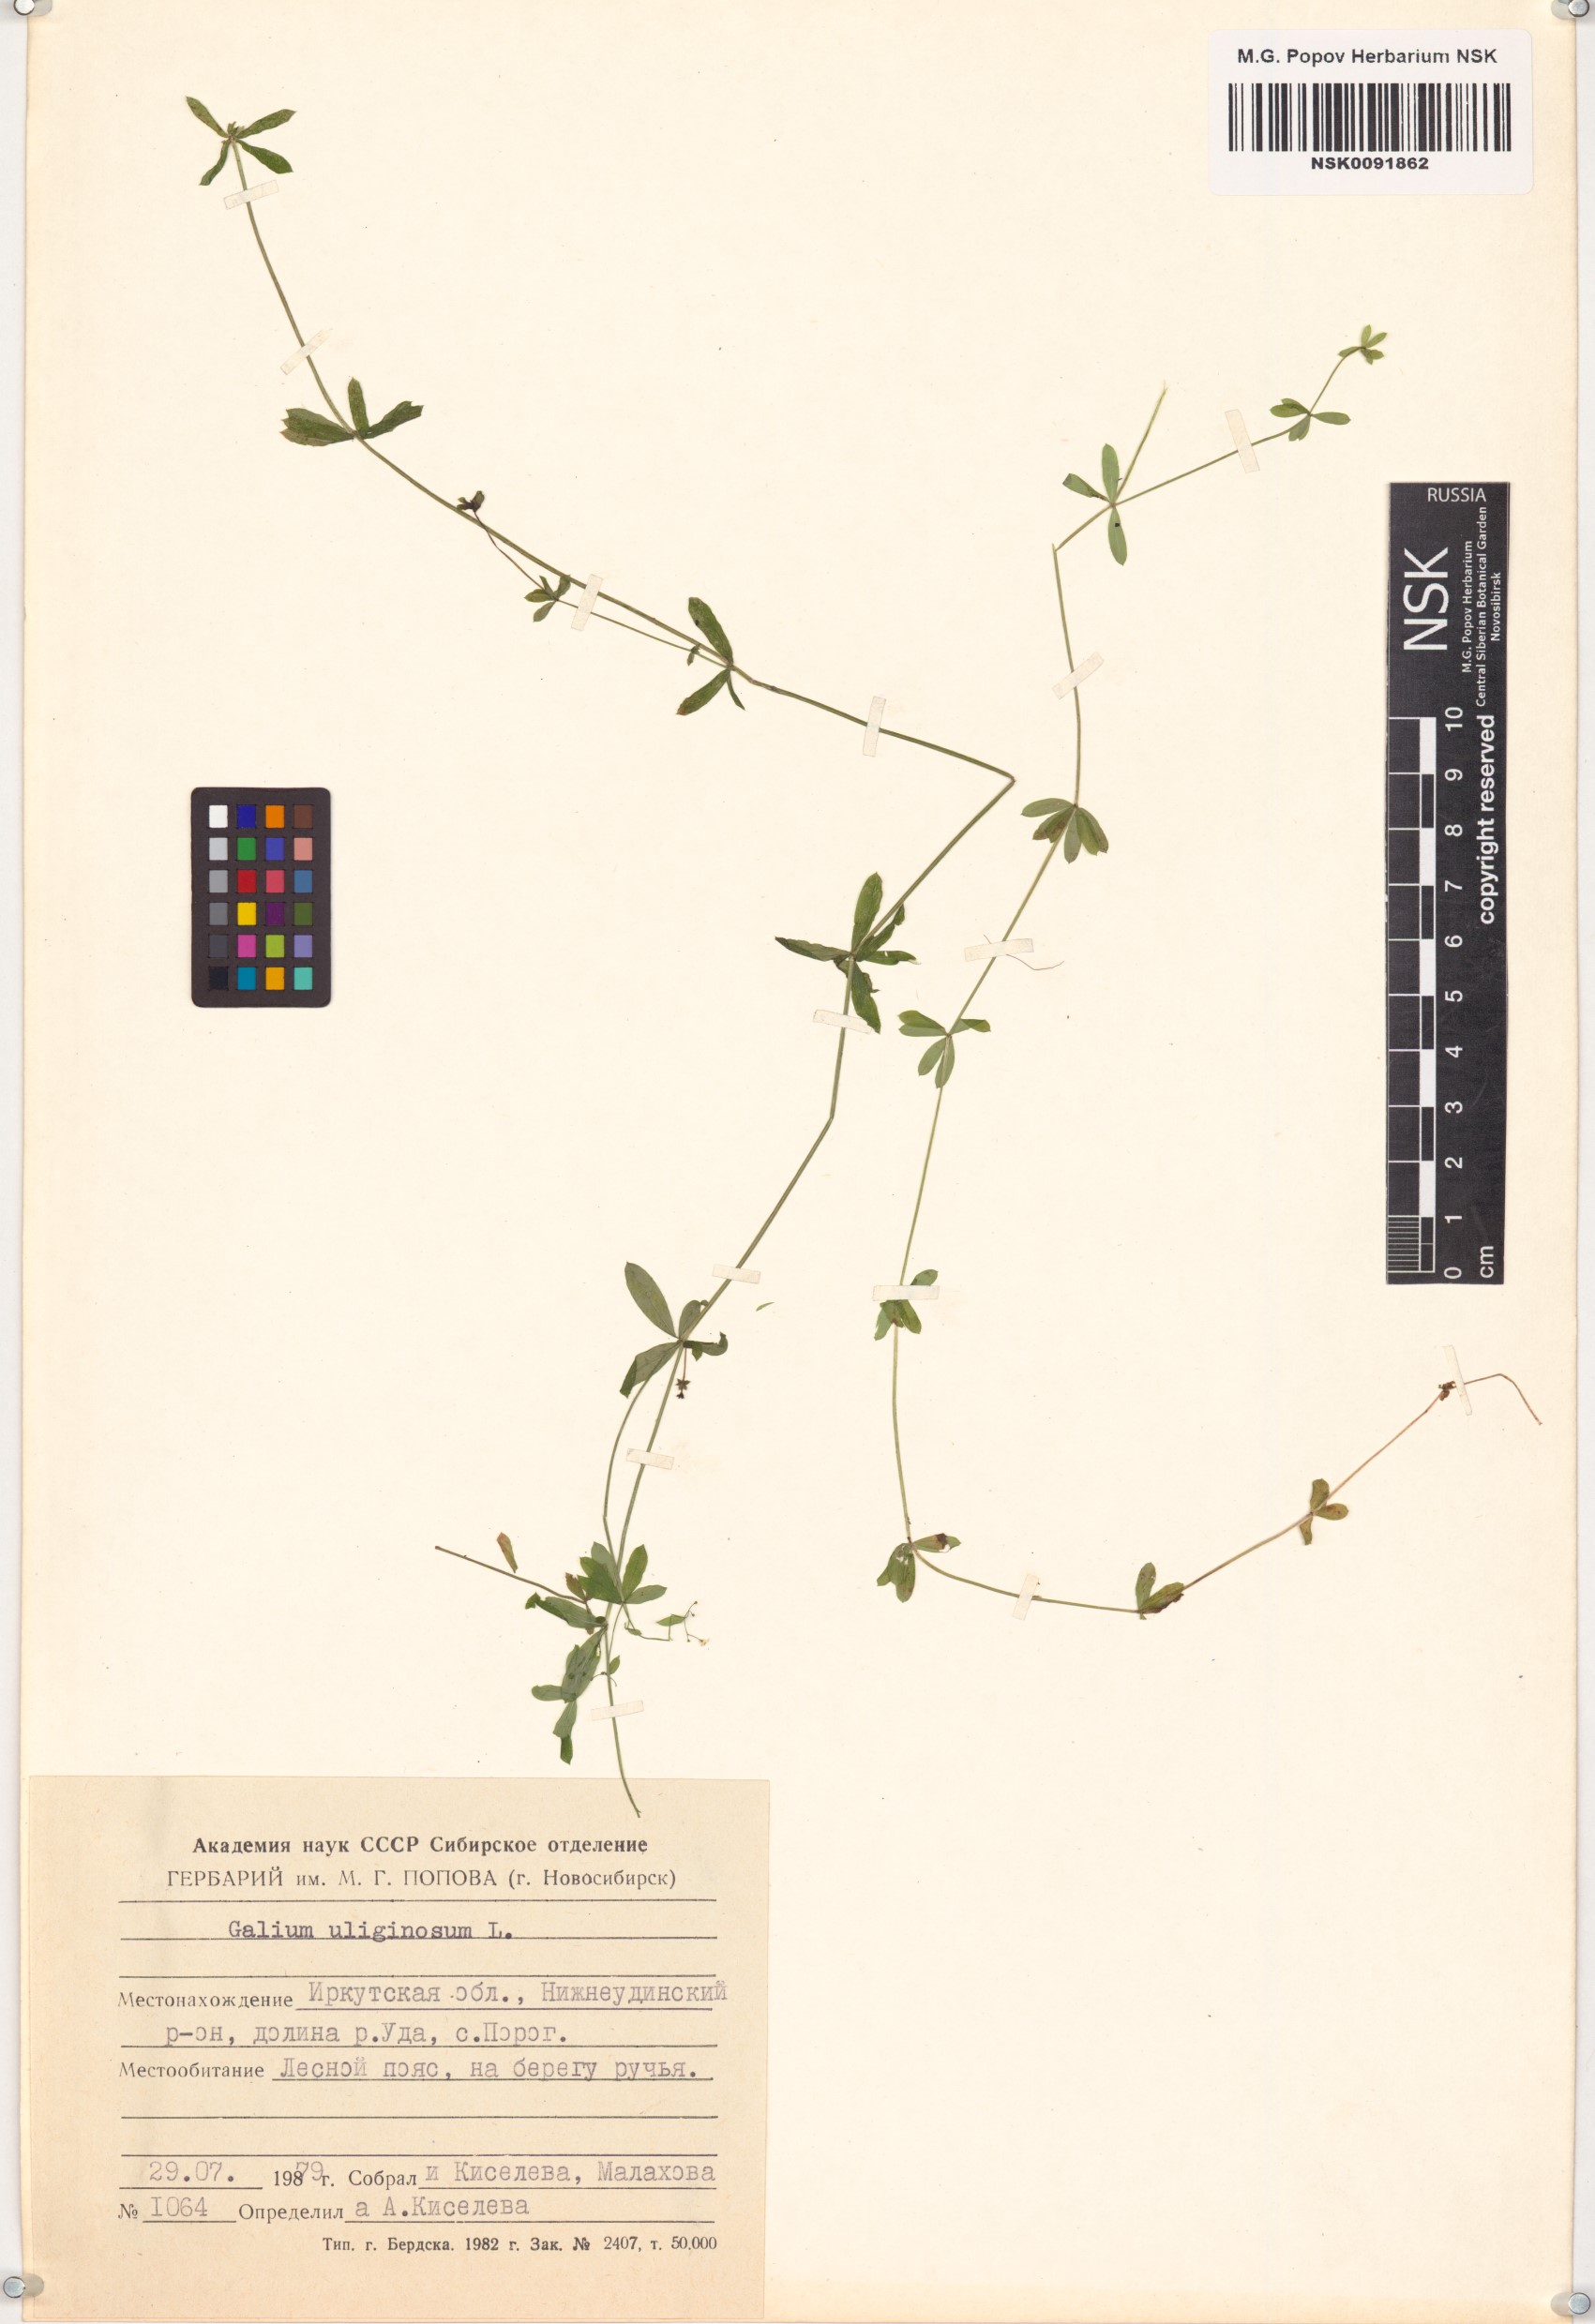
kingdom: Plantae
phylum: Tracheophyta
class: Magnoliopsida
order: Gentianales
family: Rubiaceae
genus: Galium
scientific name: Galium uliginosum
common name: Fen bedstraw
